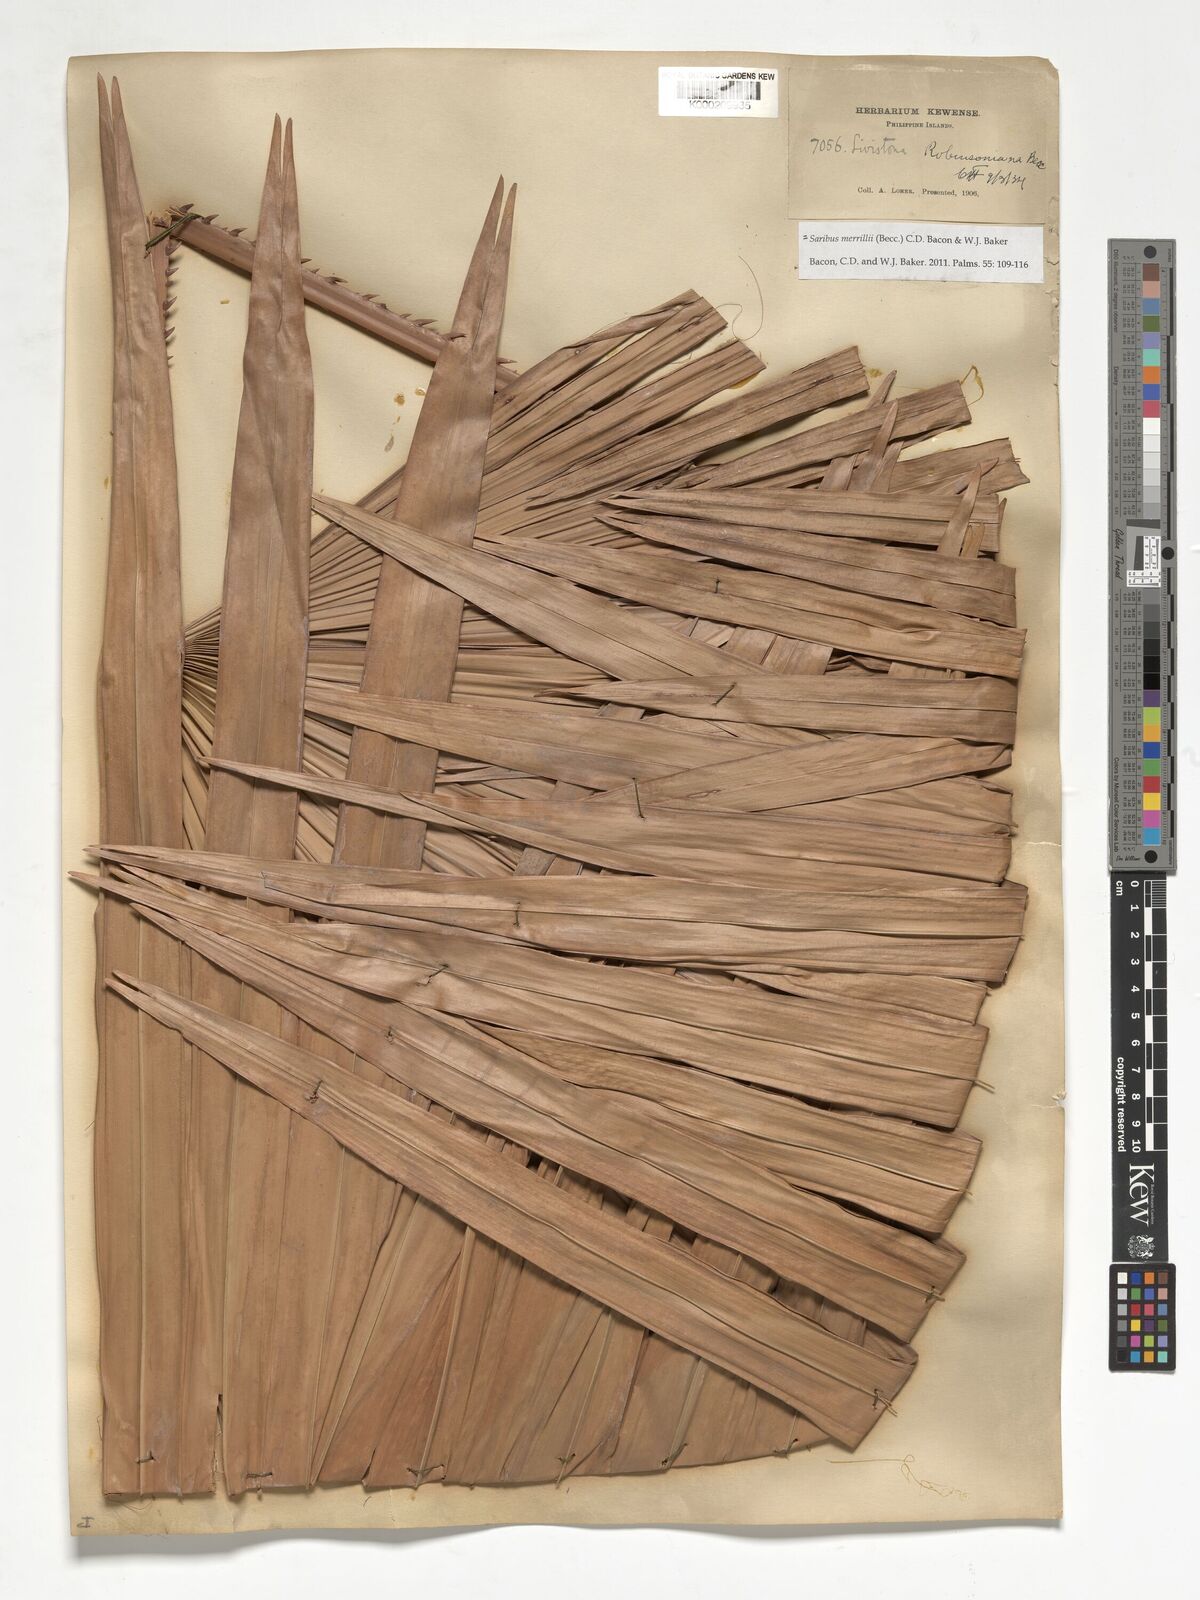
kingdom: Plantae
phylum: Tracheophyta
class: Liliopsida
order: Arecales
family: Arecaceae
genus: Saribus
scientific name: Saribus rotundifolius
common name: Palm
